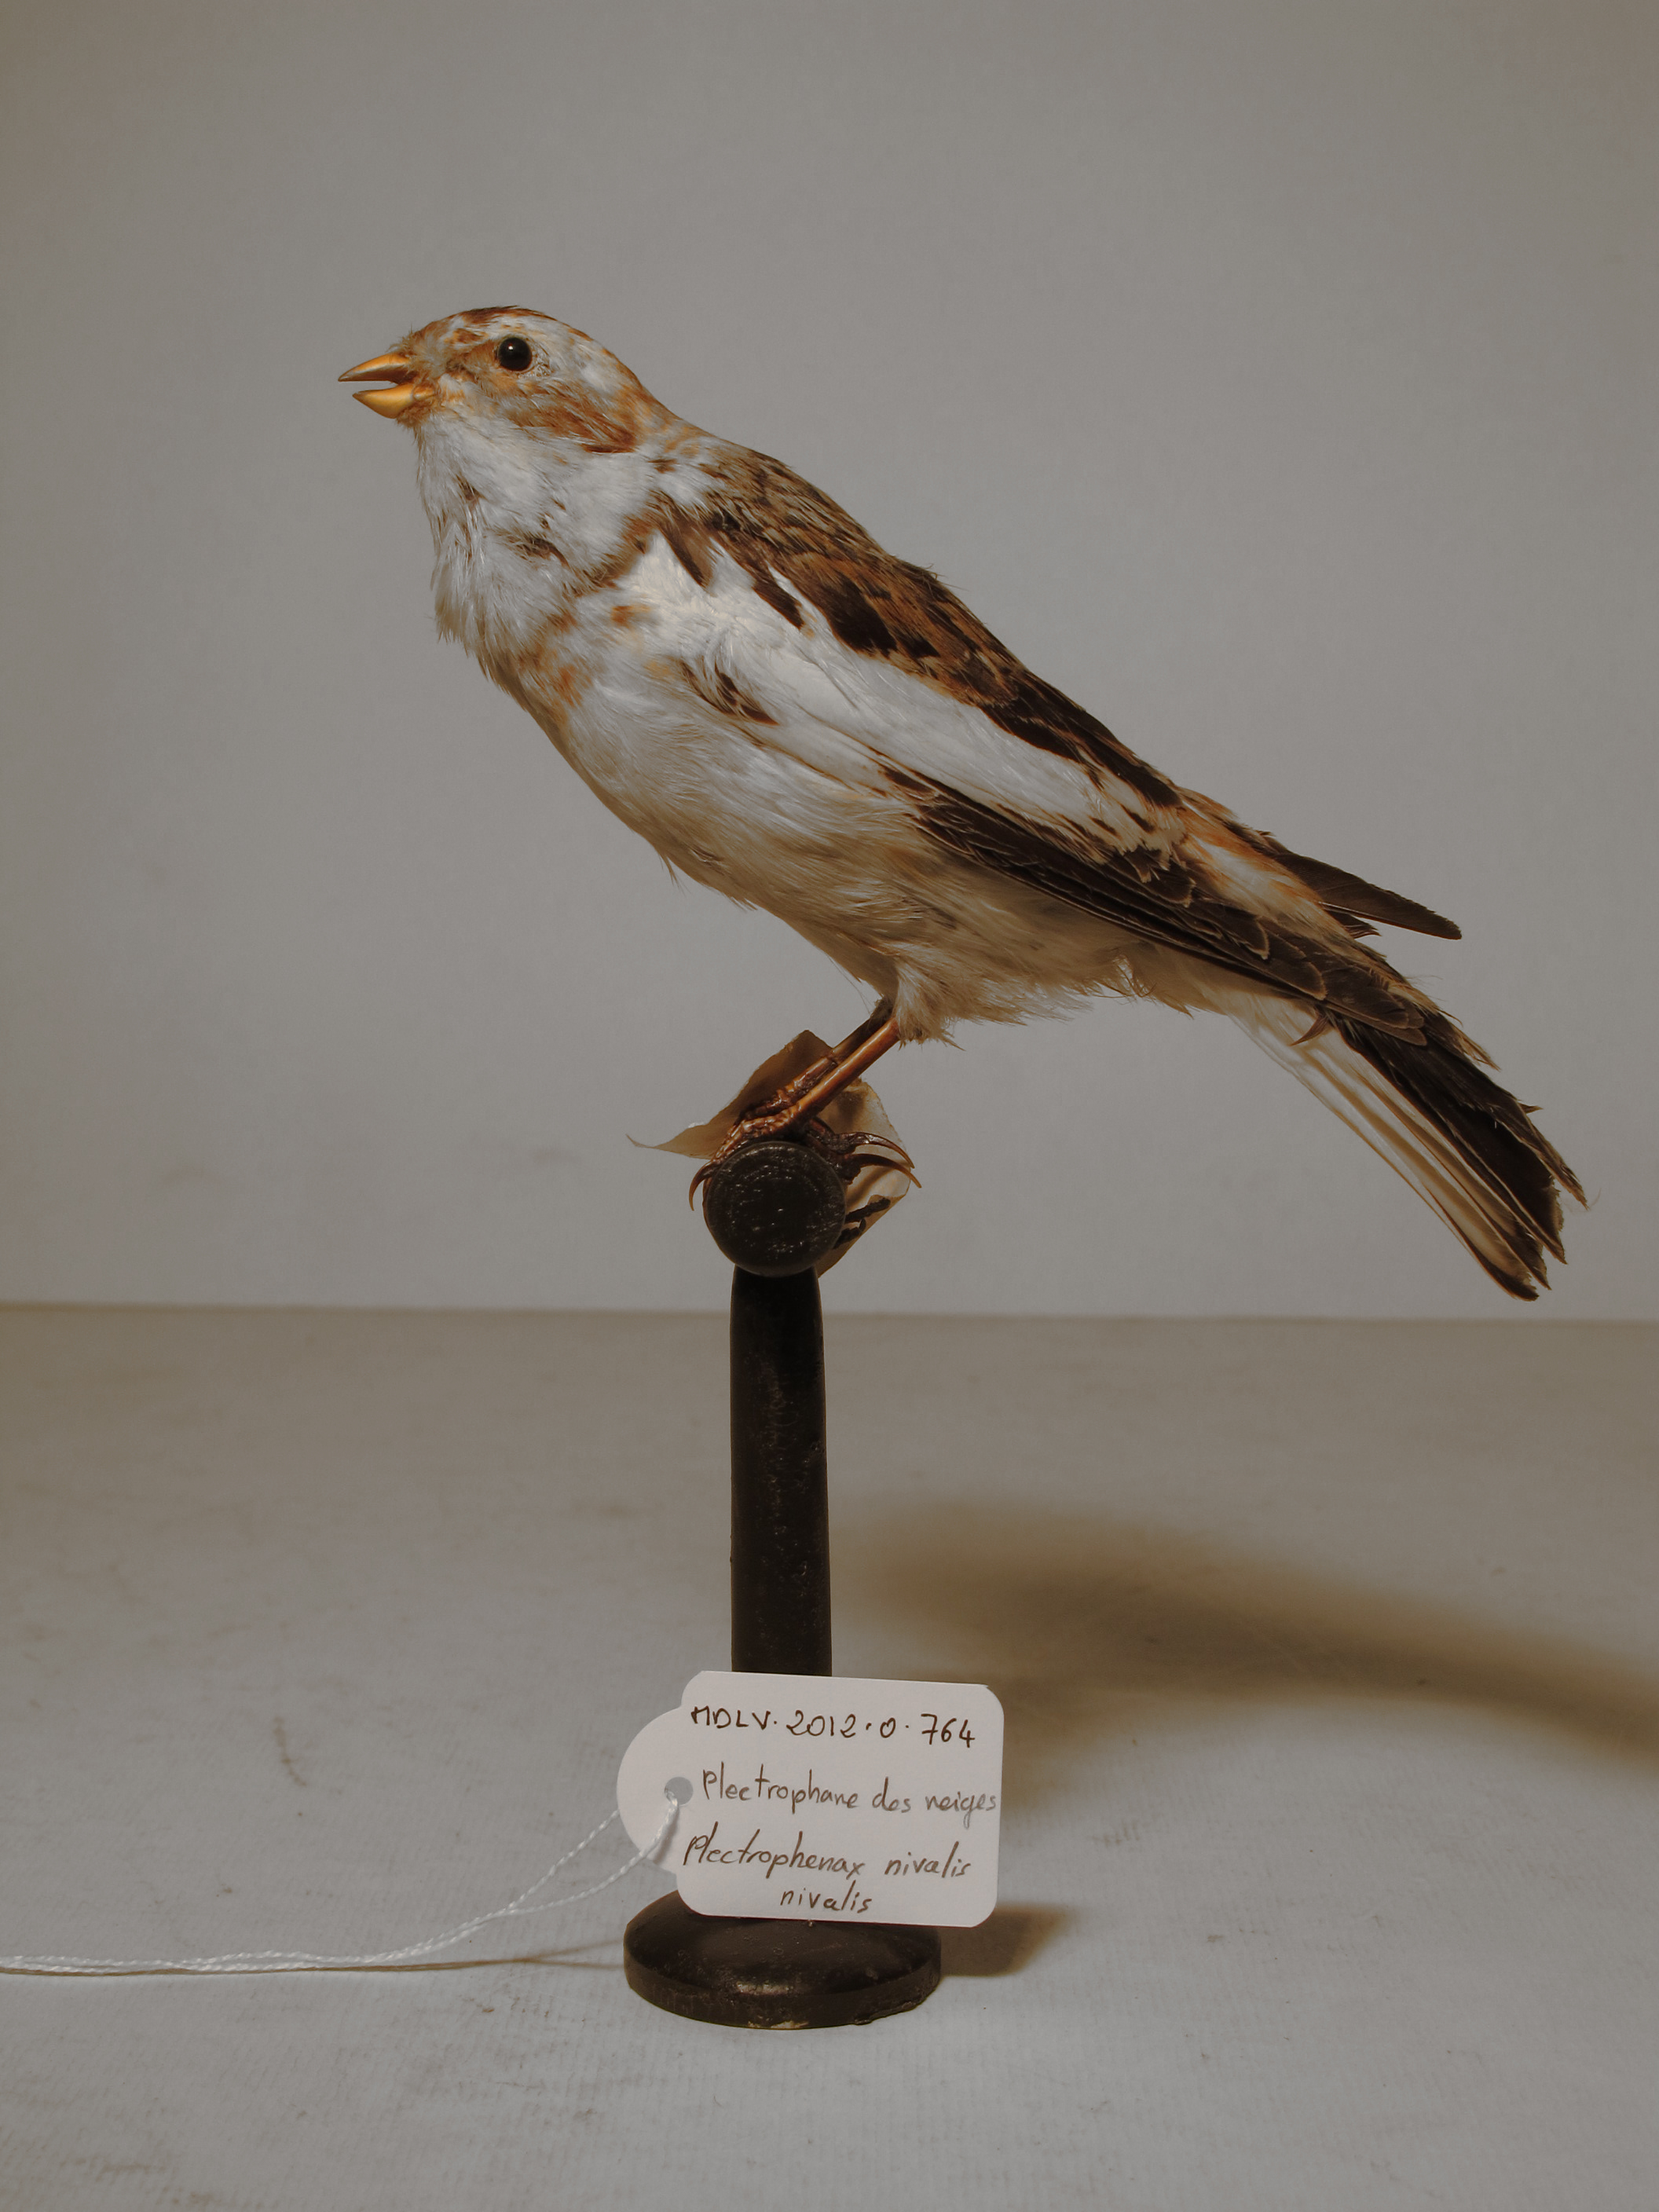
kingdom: Animalia
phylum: Chordata
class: Aves
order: Passeriformes
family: Calcariidae
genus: Plectrophenax
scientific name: Plectrophenax nivalis
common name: Snow Bunting
